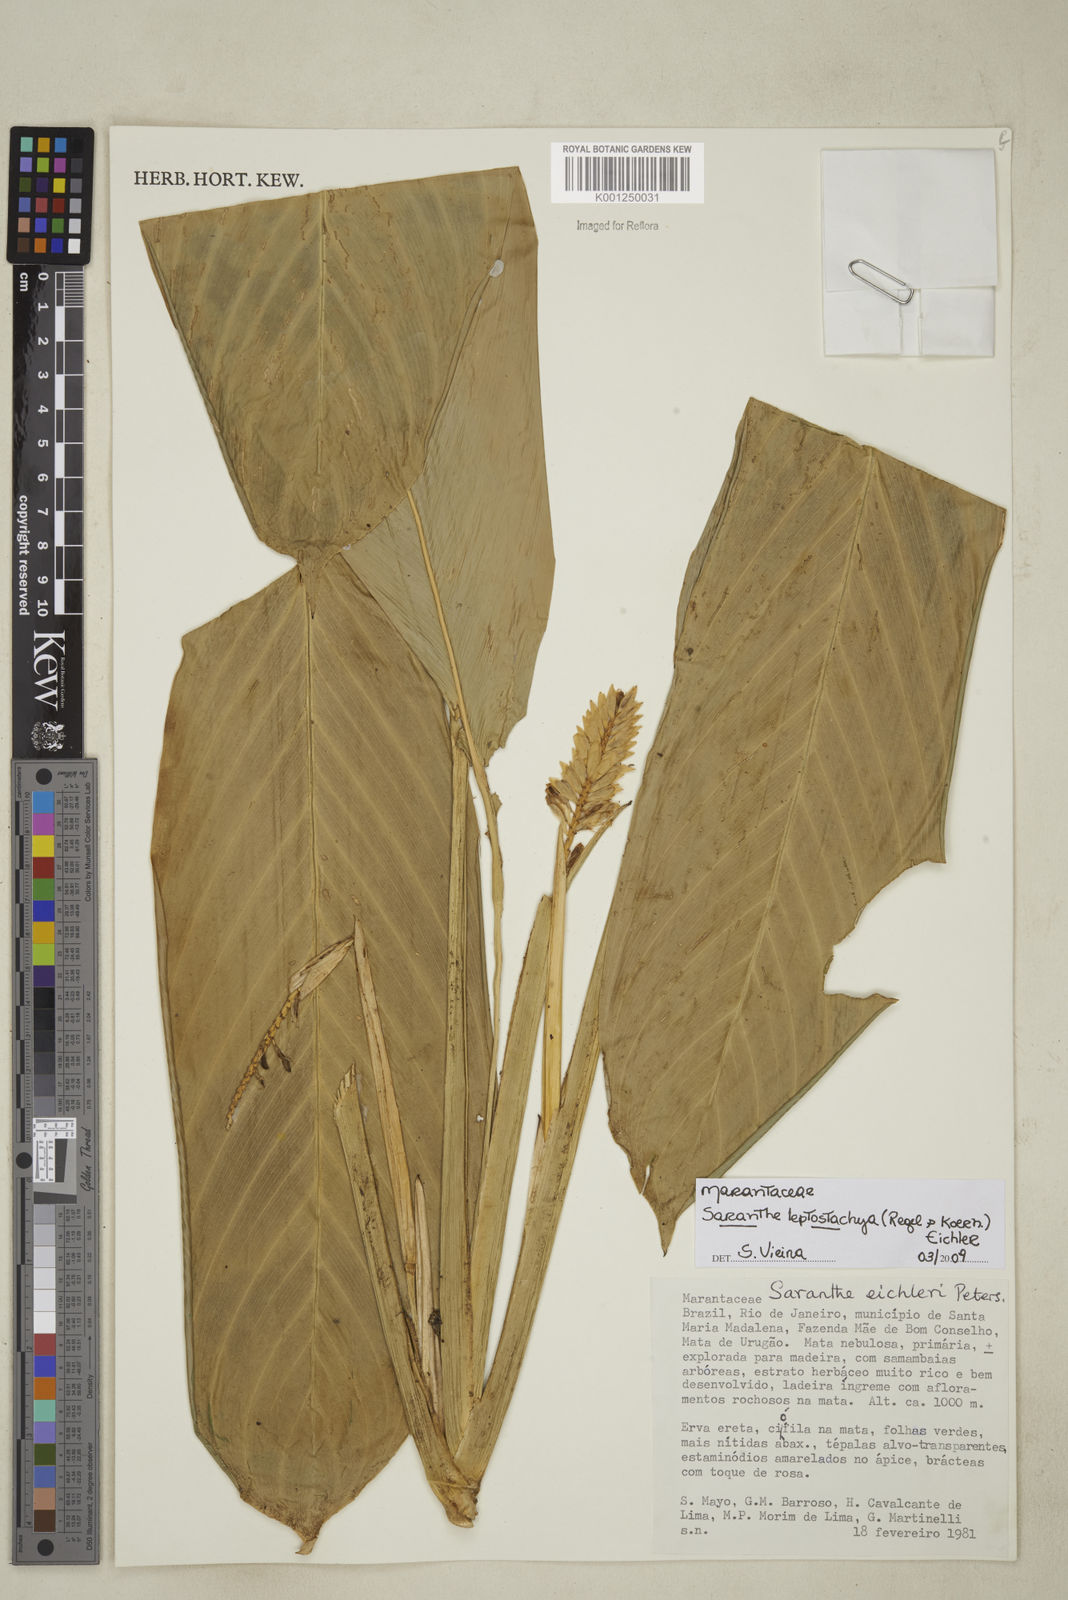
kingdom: Plantae
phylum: Tracheophyta
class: Liliopsida
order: Zingiberales
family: Marantaceae
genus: Saranthe
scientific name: Saranthe leptostachya
